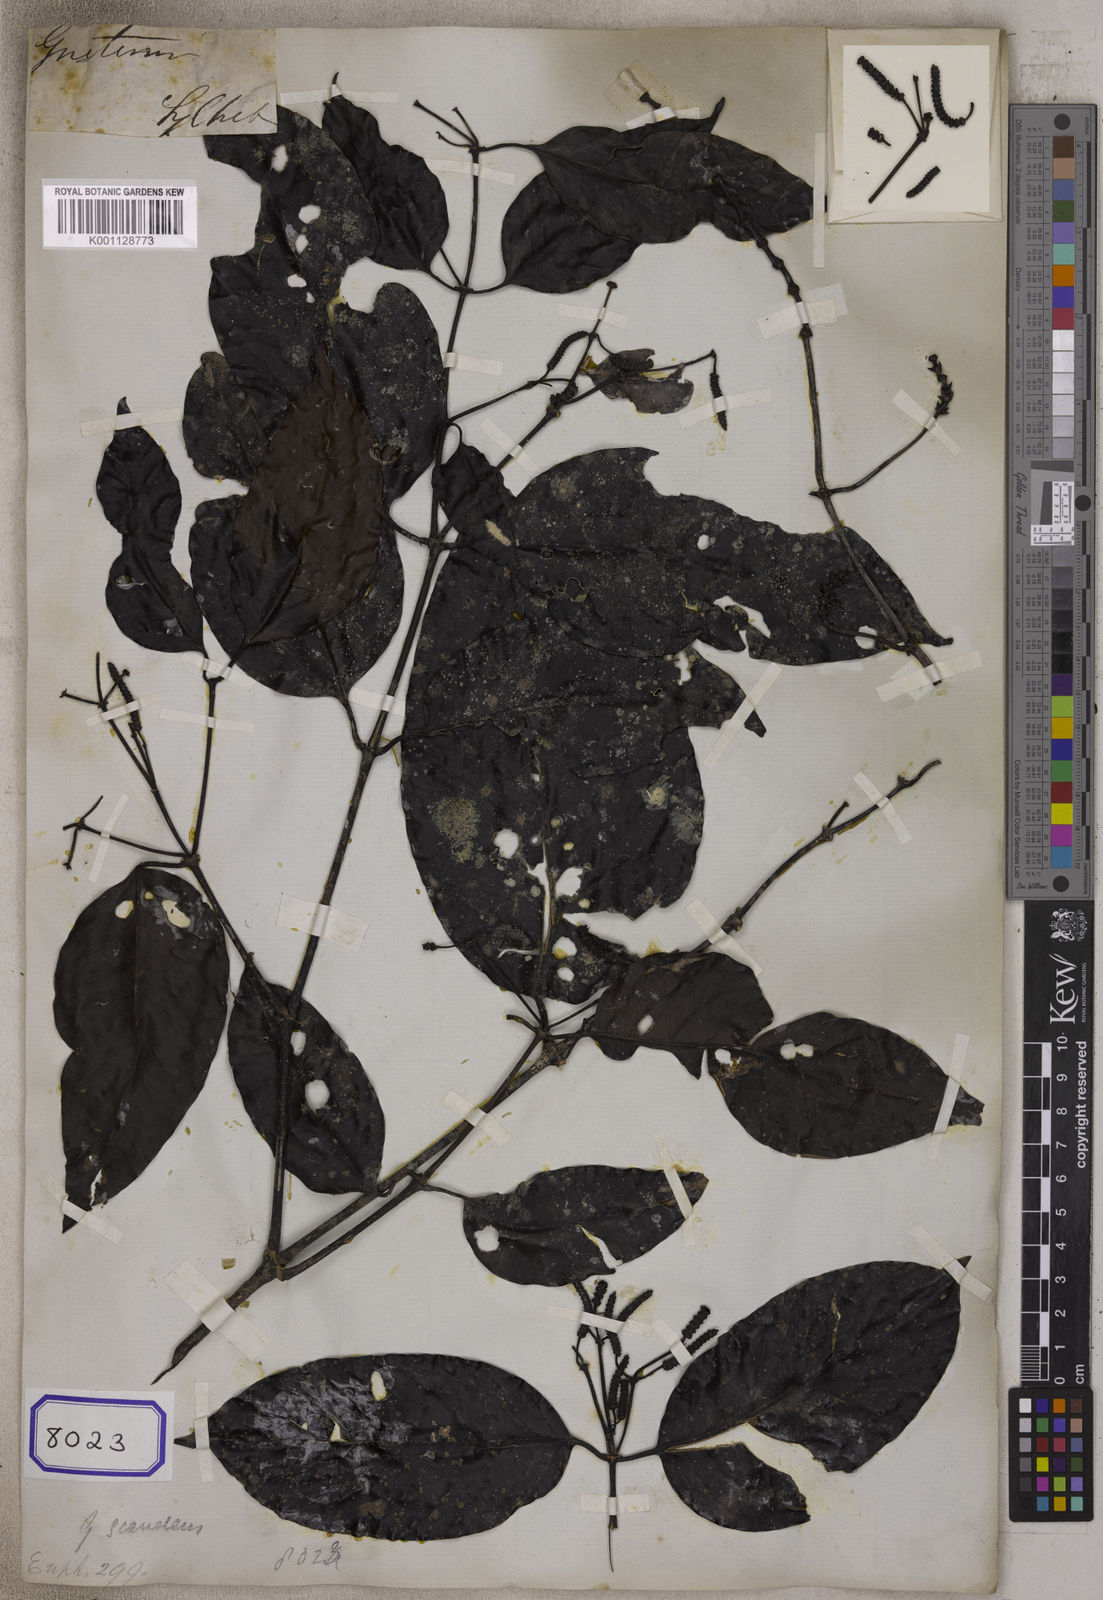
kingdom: Plantae
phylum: Tracheophyta
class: Gnetopsida
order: Gnetales
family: Gnetaceae
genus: Gnetum
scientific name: Gnetum
